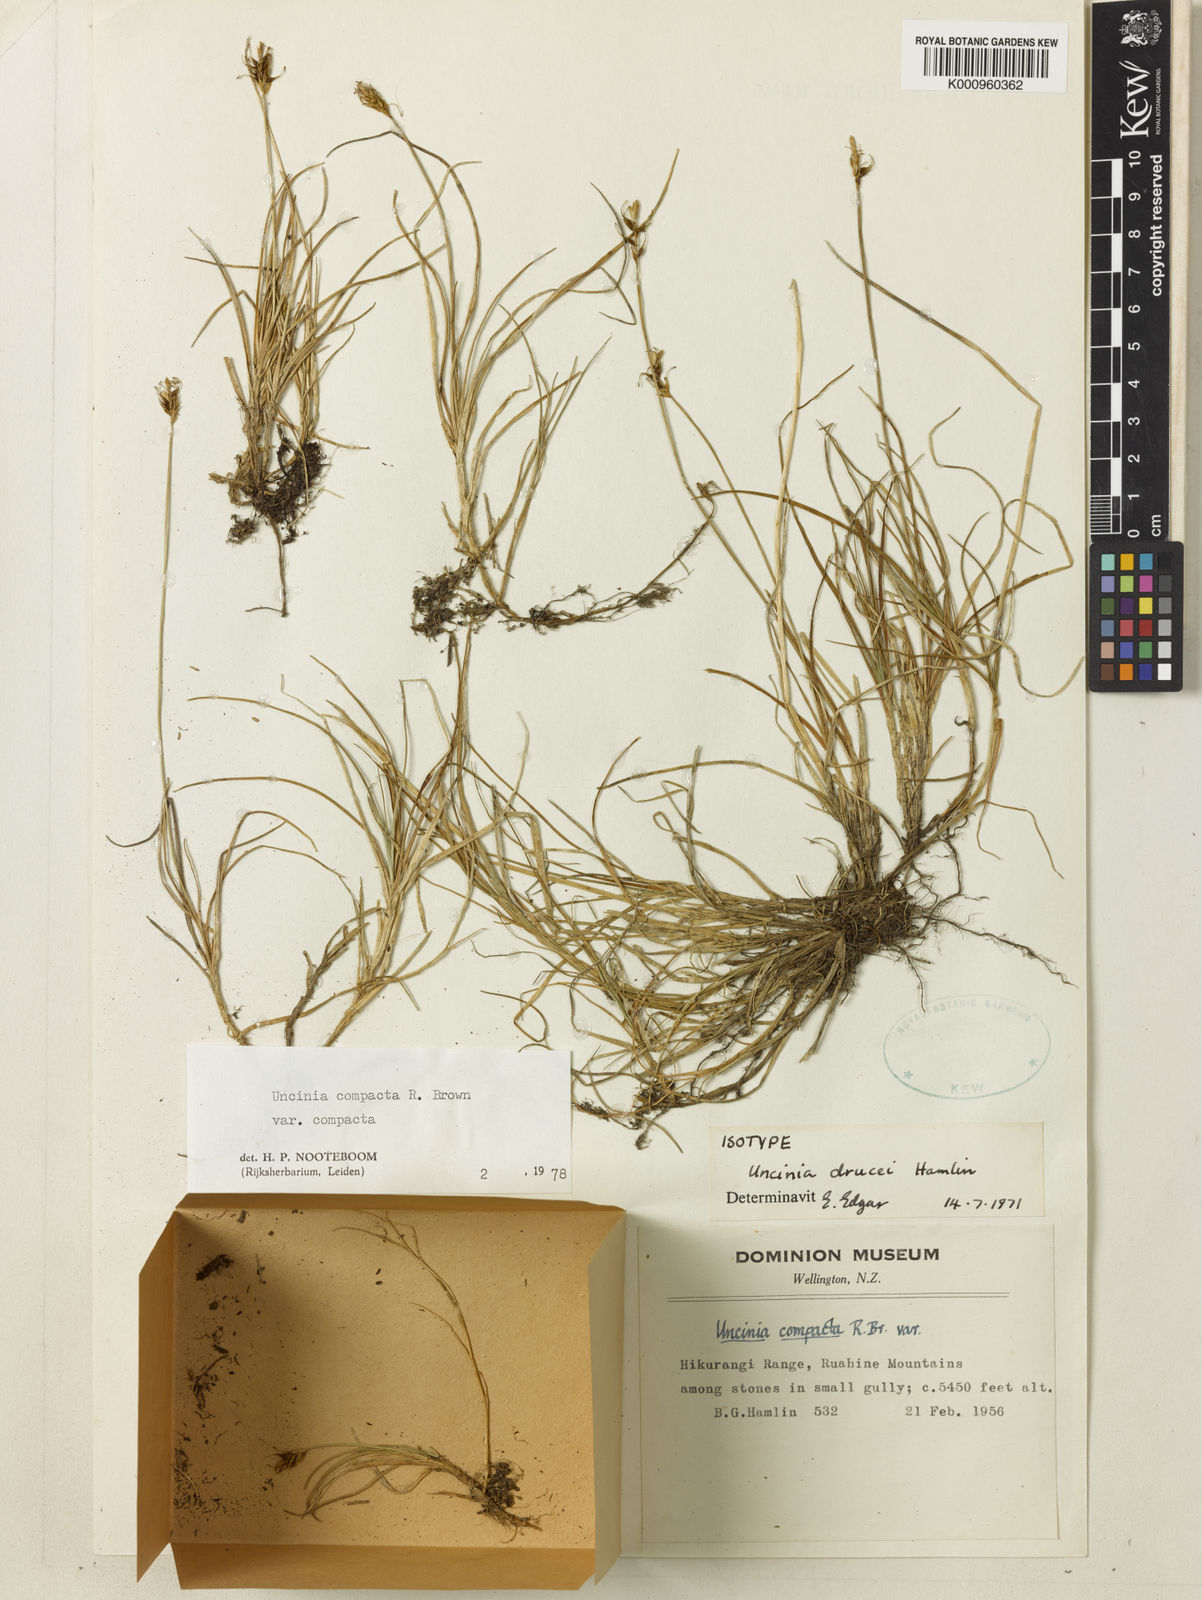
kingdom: Plantae
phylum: Tracheophyta
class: Liliopsida
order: Poales
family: Cyperaceae
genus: Carex
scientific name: Carex drucei
